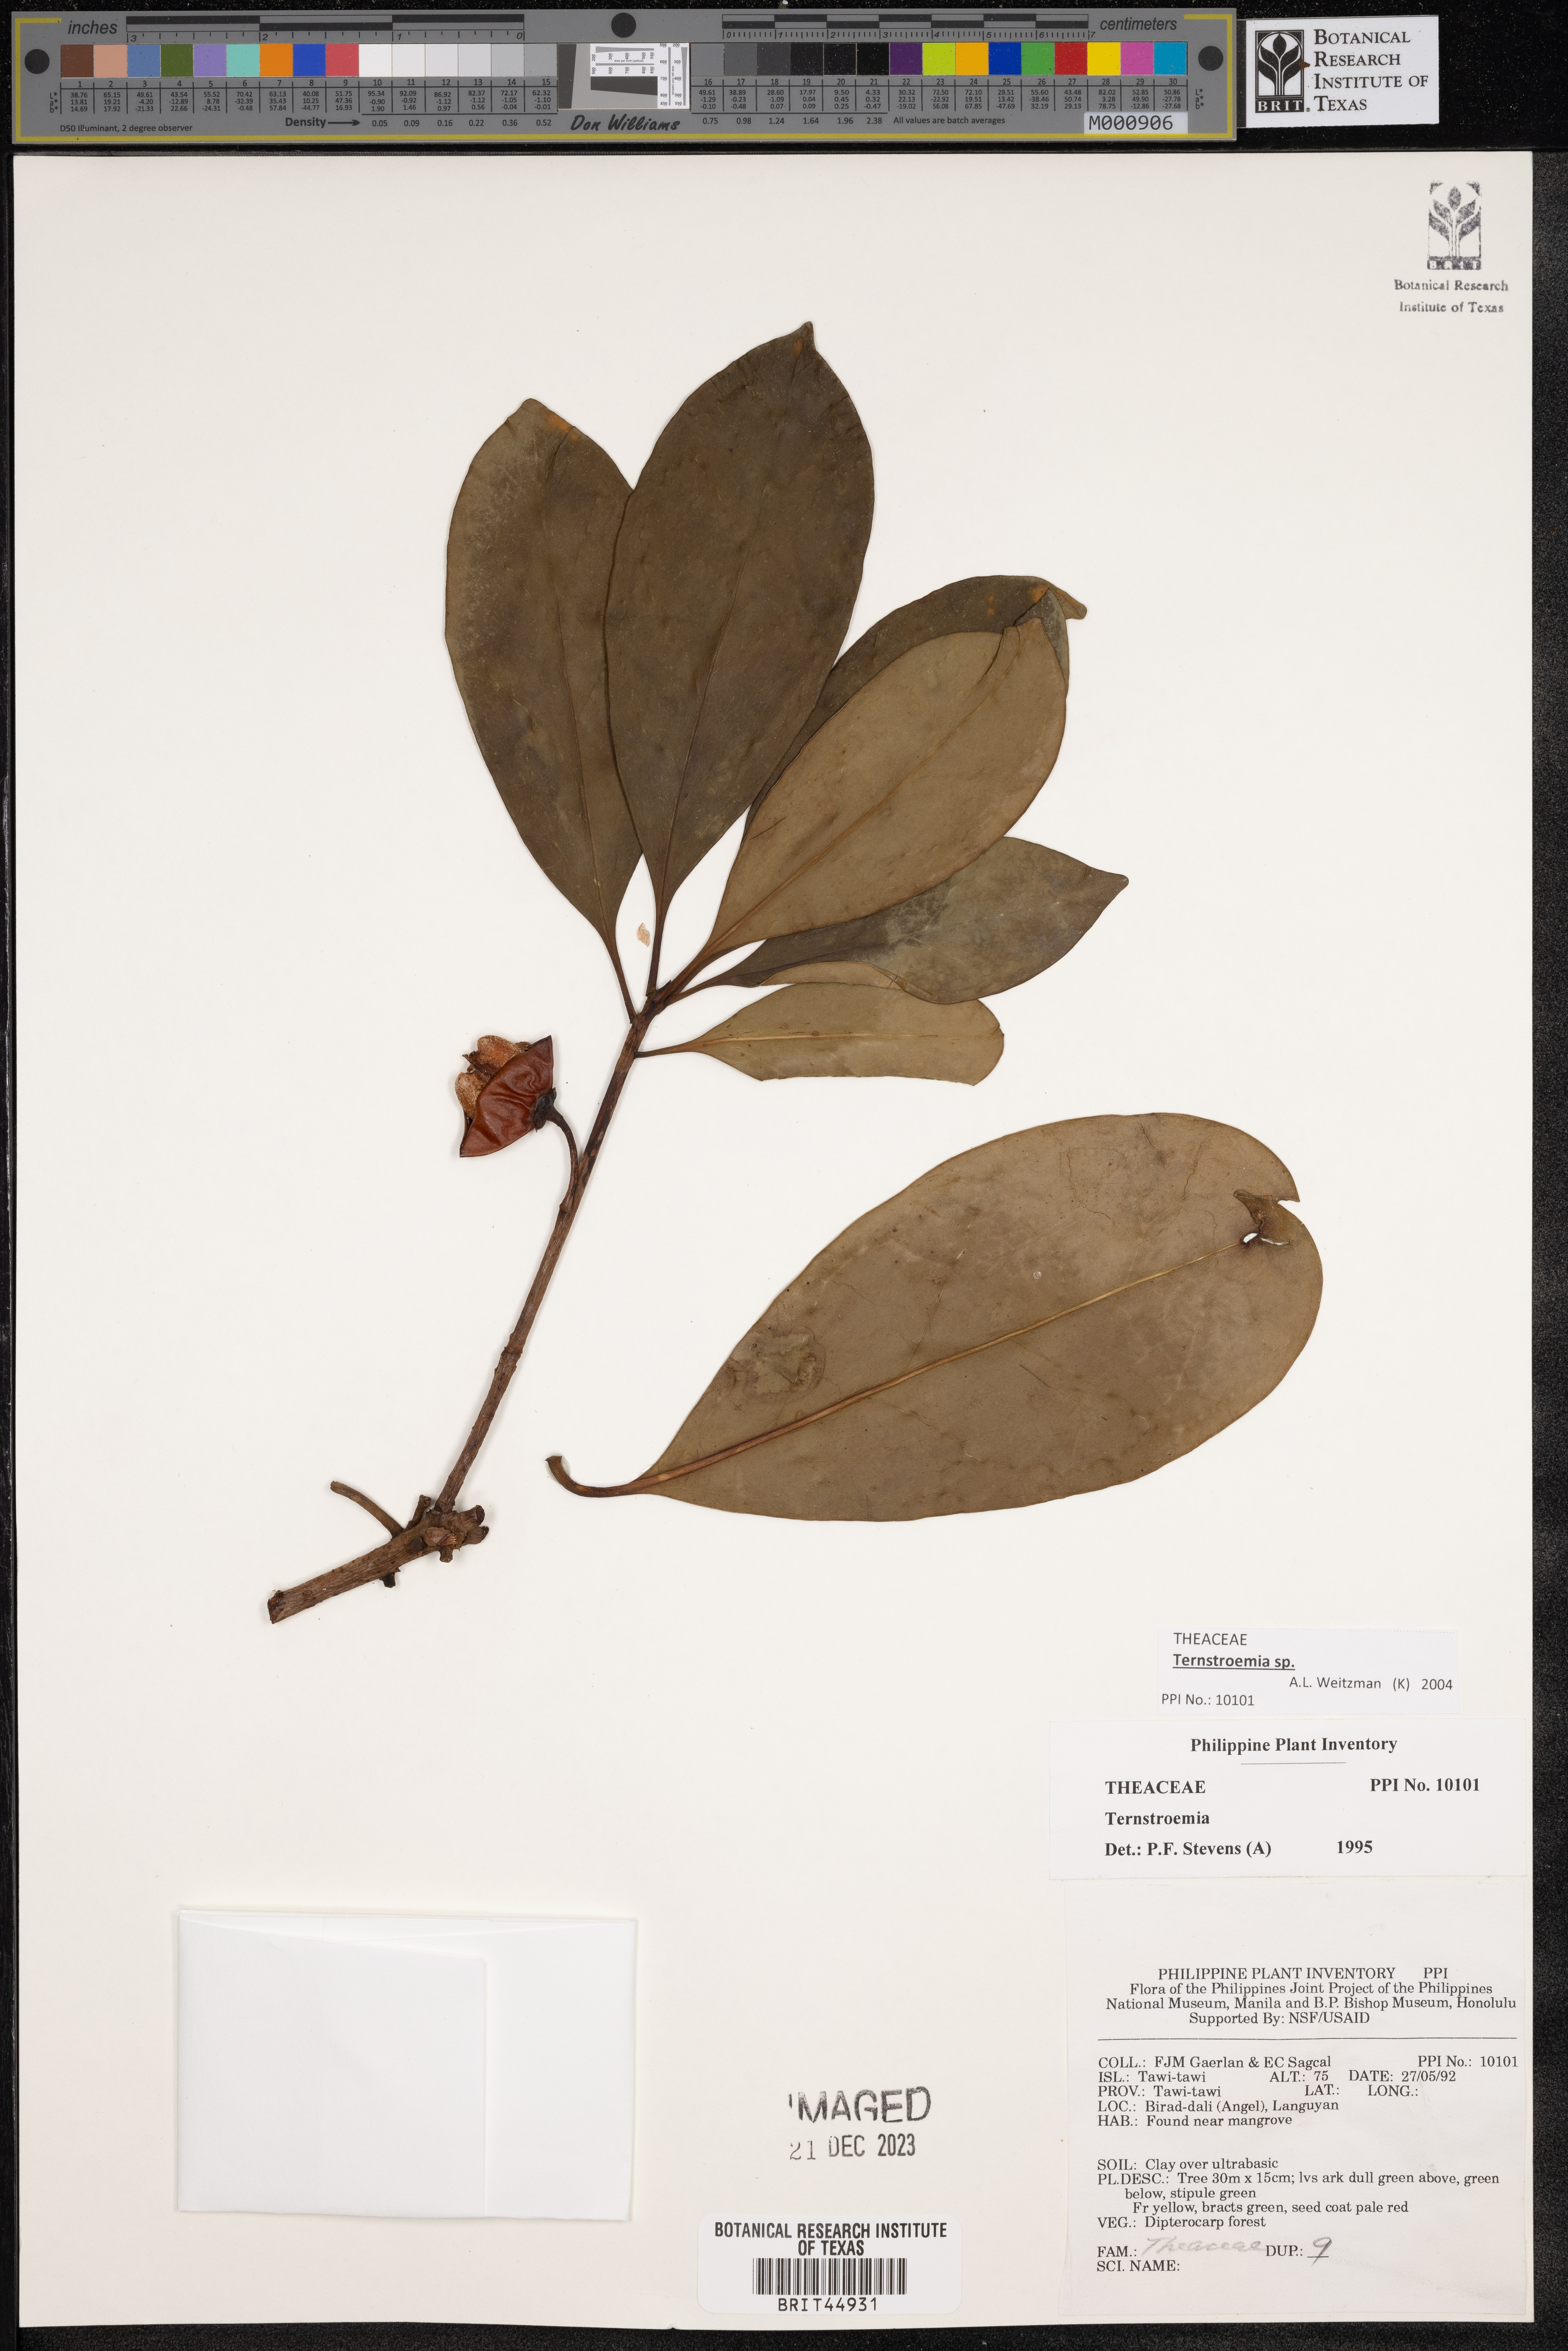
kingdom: Plantae
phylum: Tracheophyta
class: Magnoliopsida
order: Ericales
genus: Ternstroemia
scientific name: Ternstroemia
